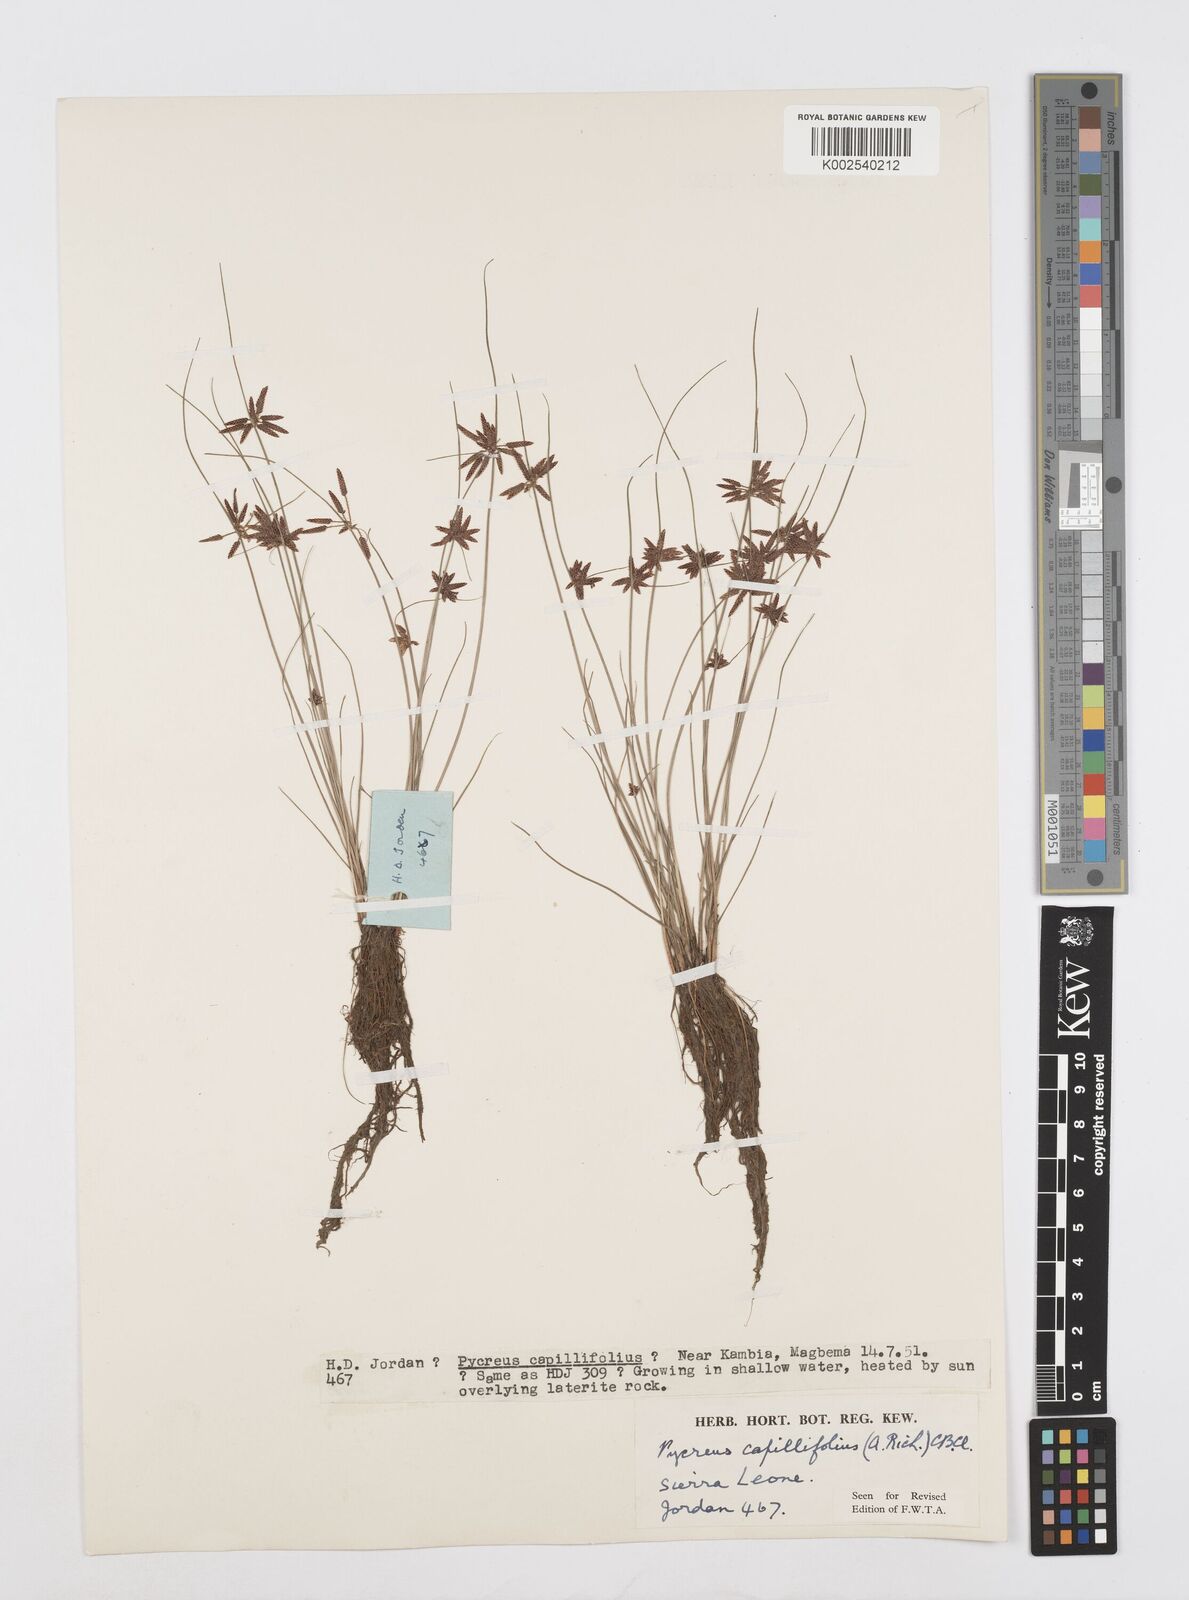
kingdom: Plantae
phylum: Tracheophyta
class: Liliopsida
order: Poales
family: Cyperaceae
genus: Cyperus
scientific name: Cyperus capillifolius
